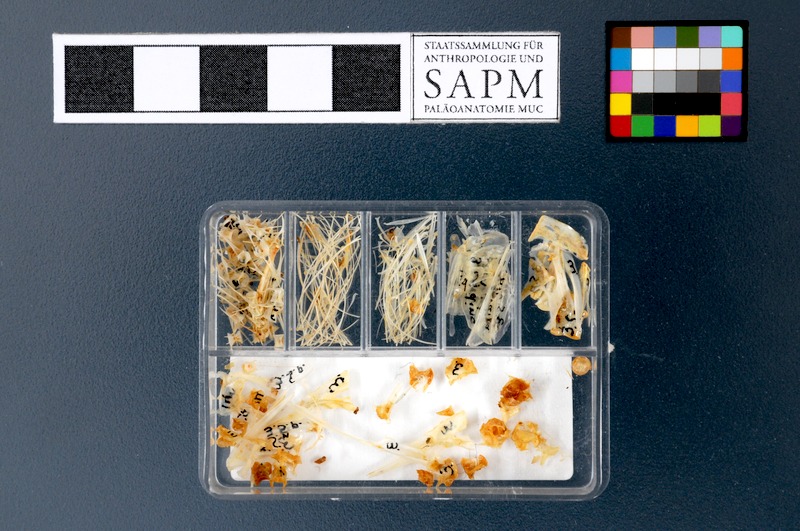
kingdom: Animalia
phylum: Chordata
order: Clupeiformes
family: Clupeidae
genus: Sardina
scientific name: Sardina pilchardus
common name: Pilchard
